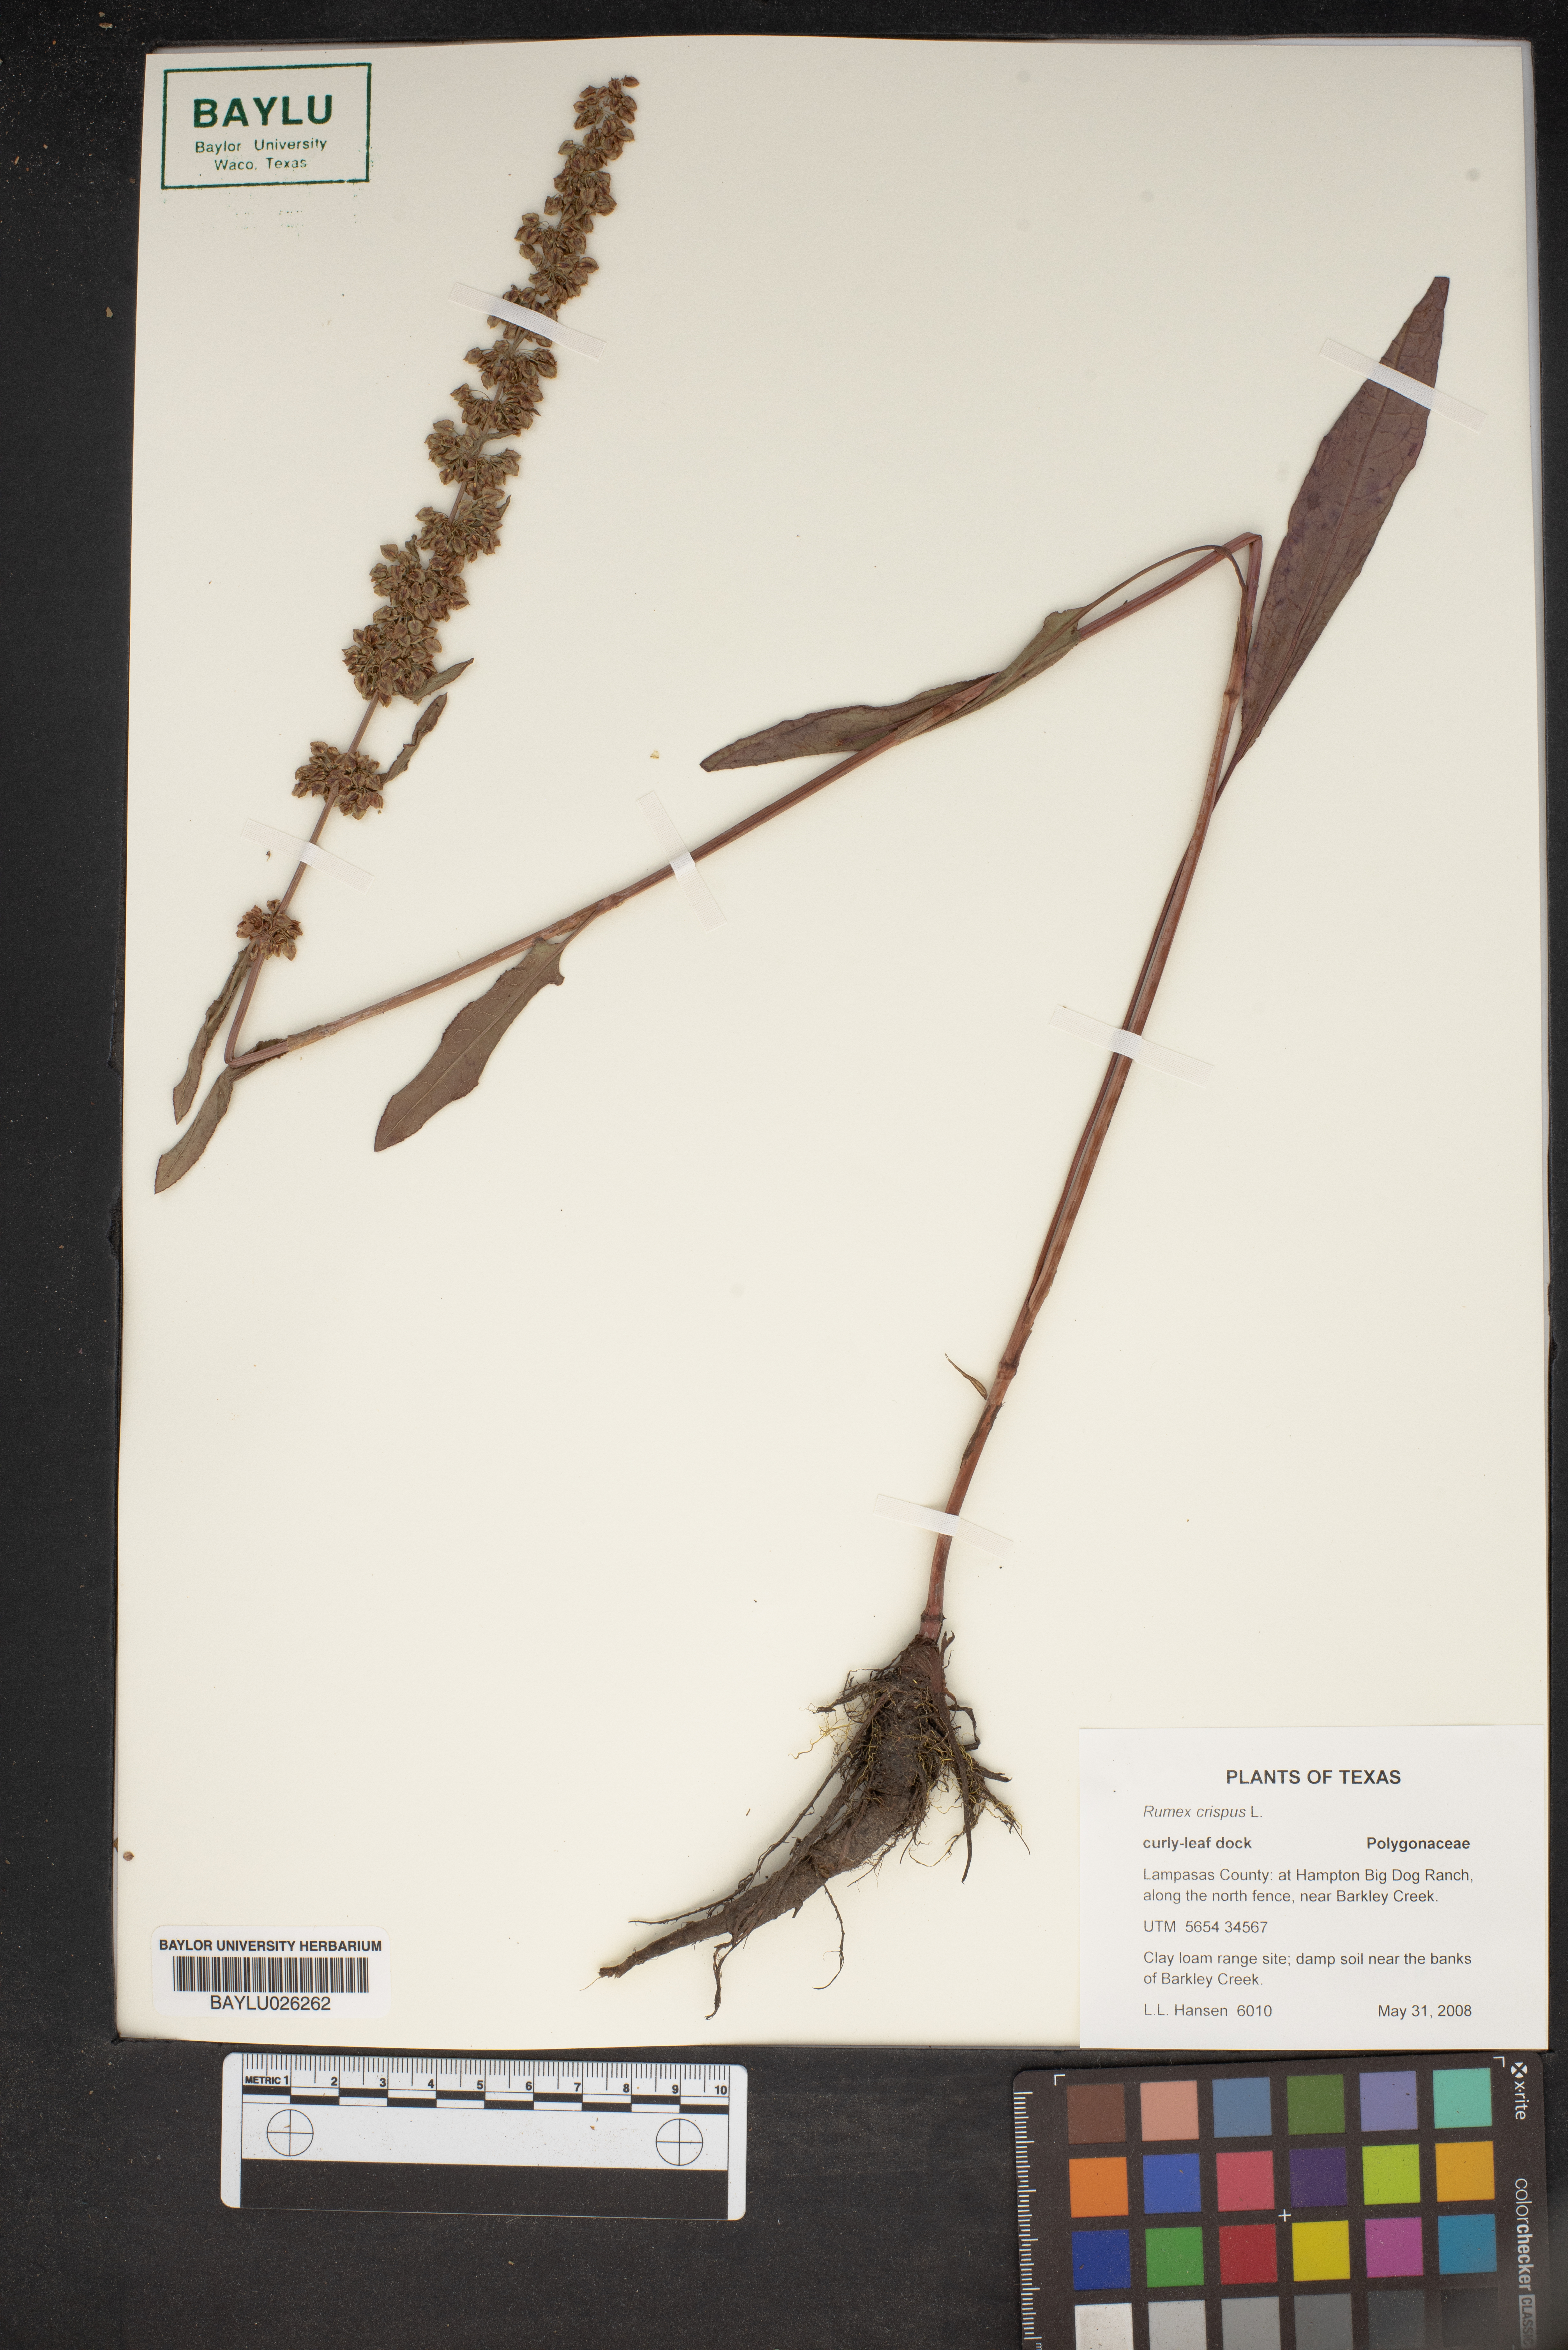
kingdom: Plantae
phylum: Tracheophyta
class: Magnoliopsida
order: Caryophyllales
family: Polygonaceae
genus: Rumex
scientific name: Rumex crispus
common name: Curled dock
